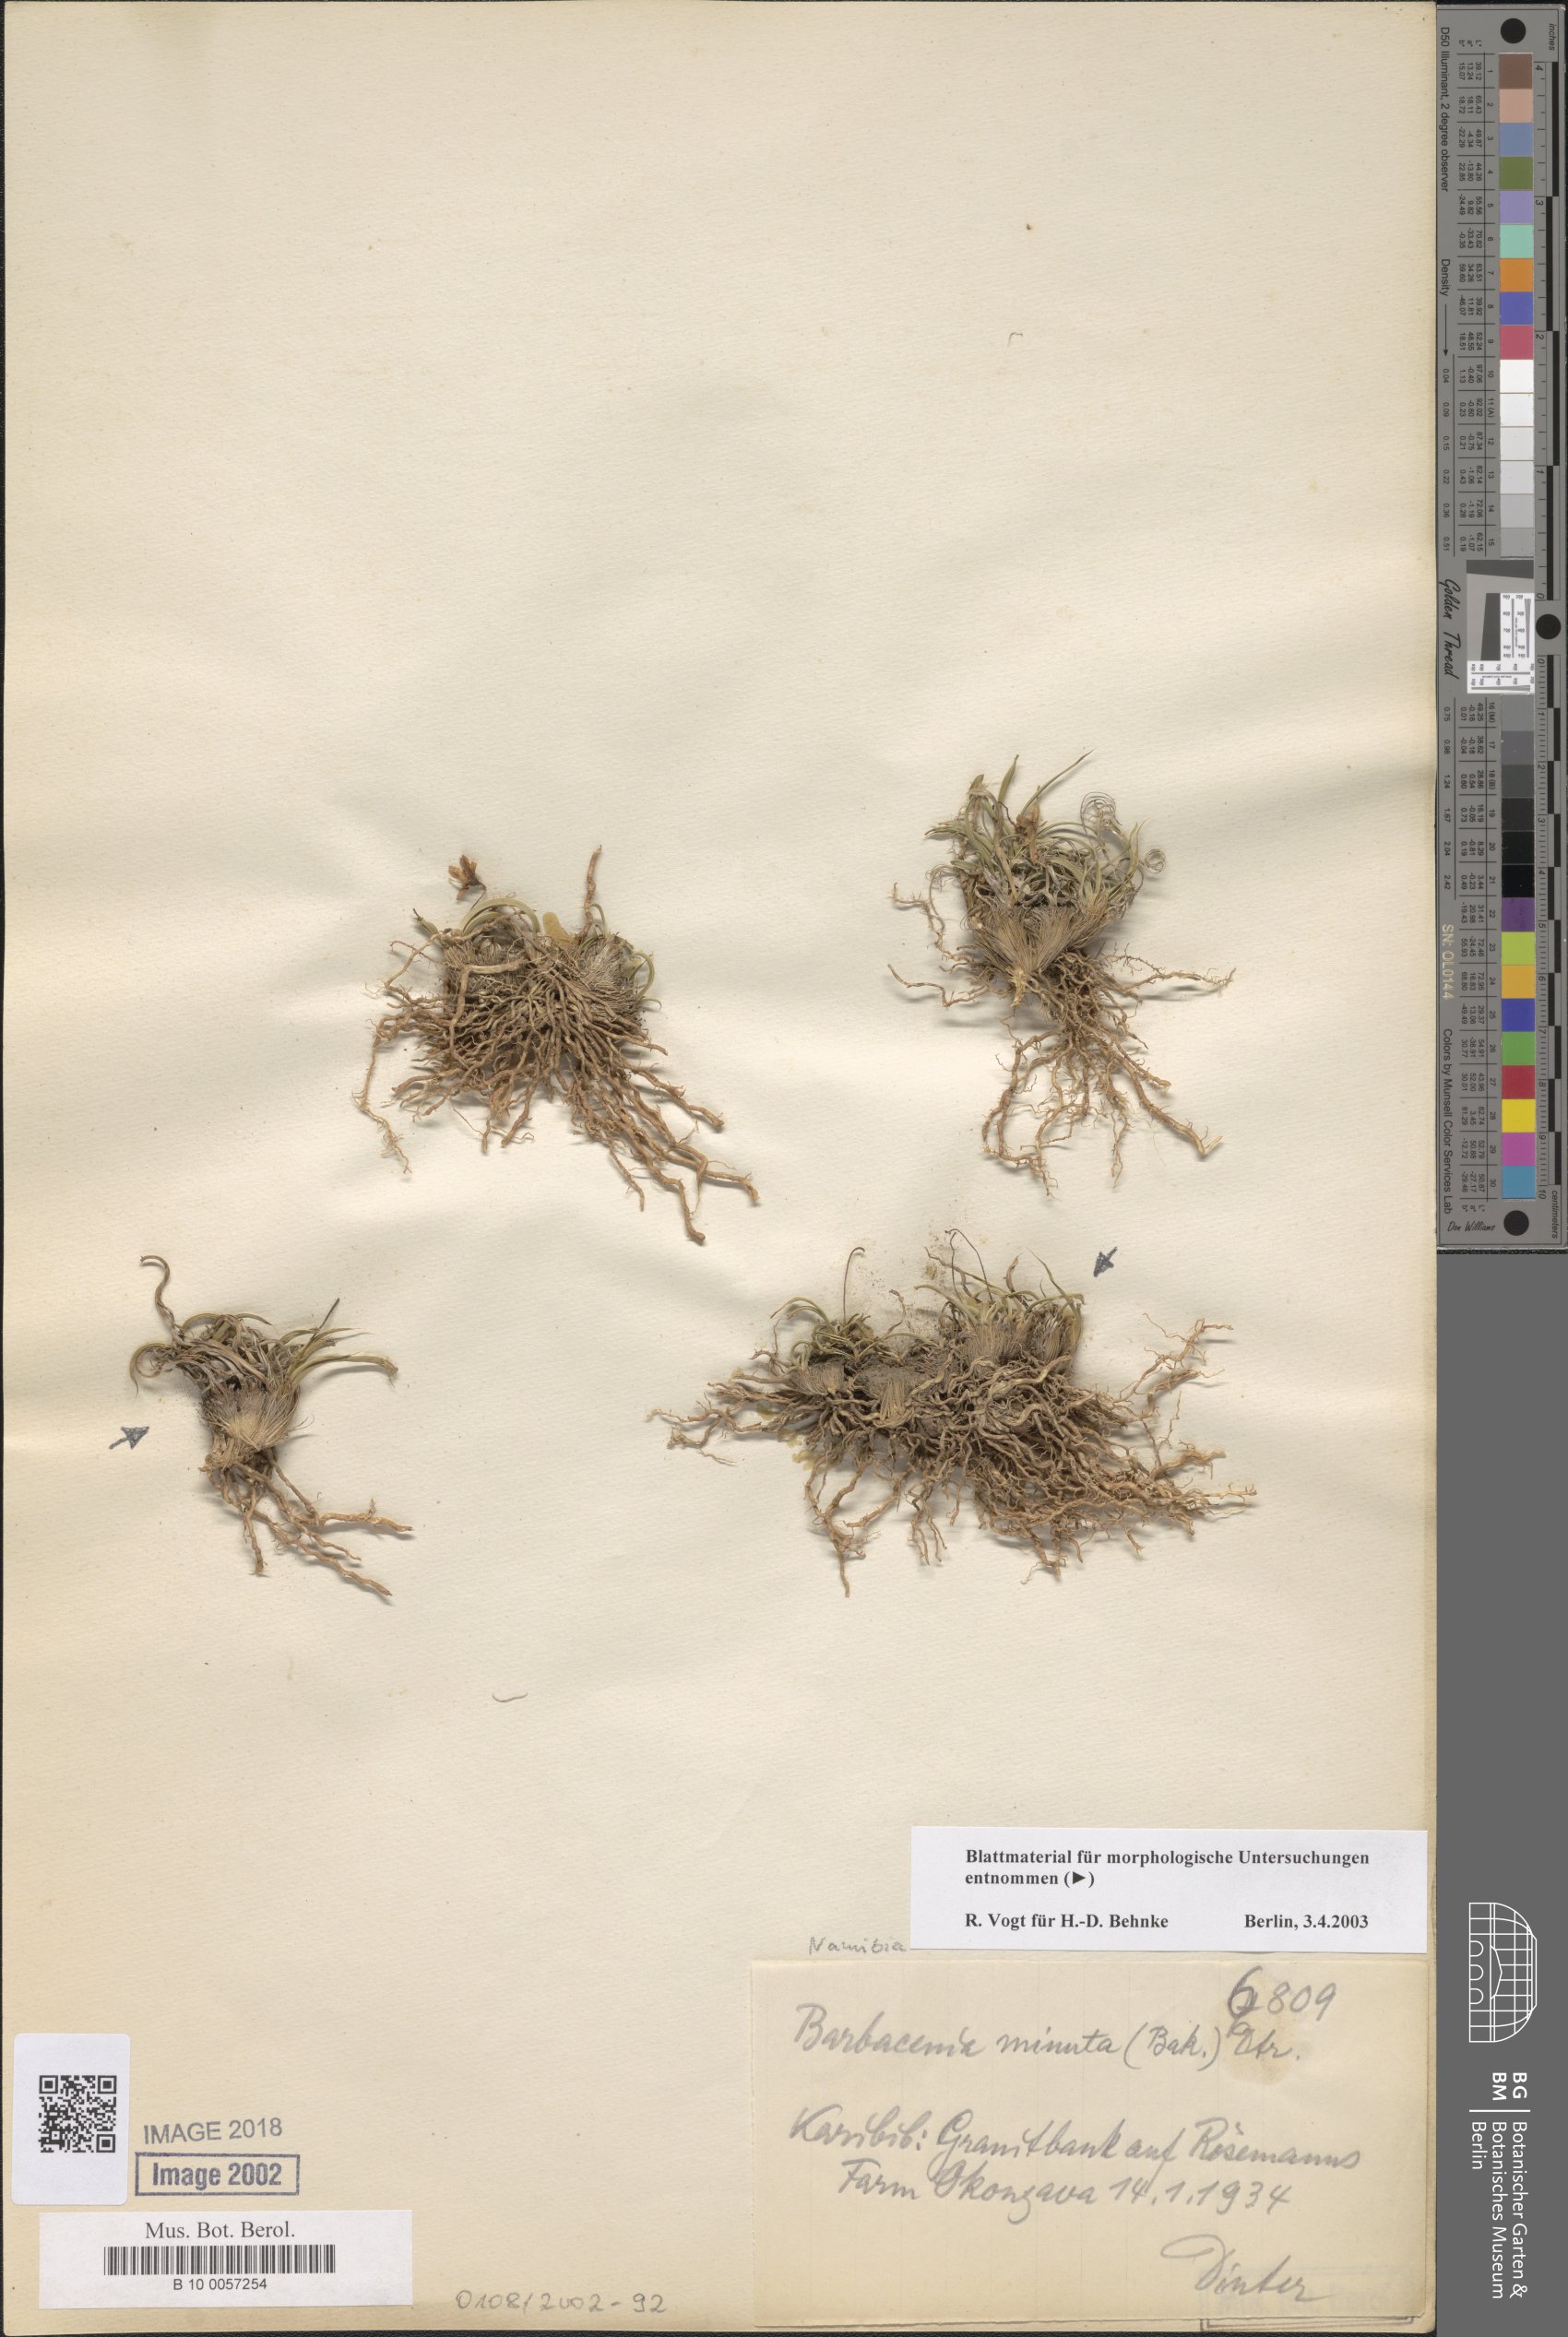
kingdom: Plantae
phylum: Tracheophyta
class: Liliopsida
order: Pandanales
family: Velloziaceae
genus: Xerophyta
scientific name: Xerophyta elegans
